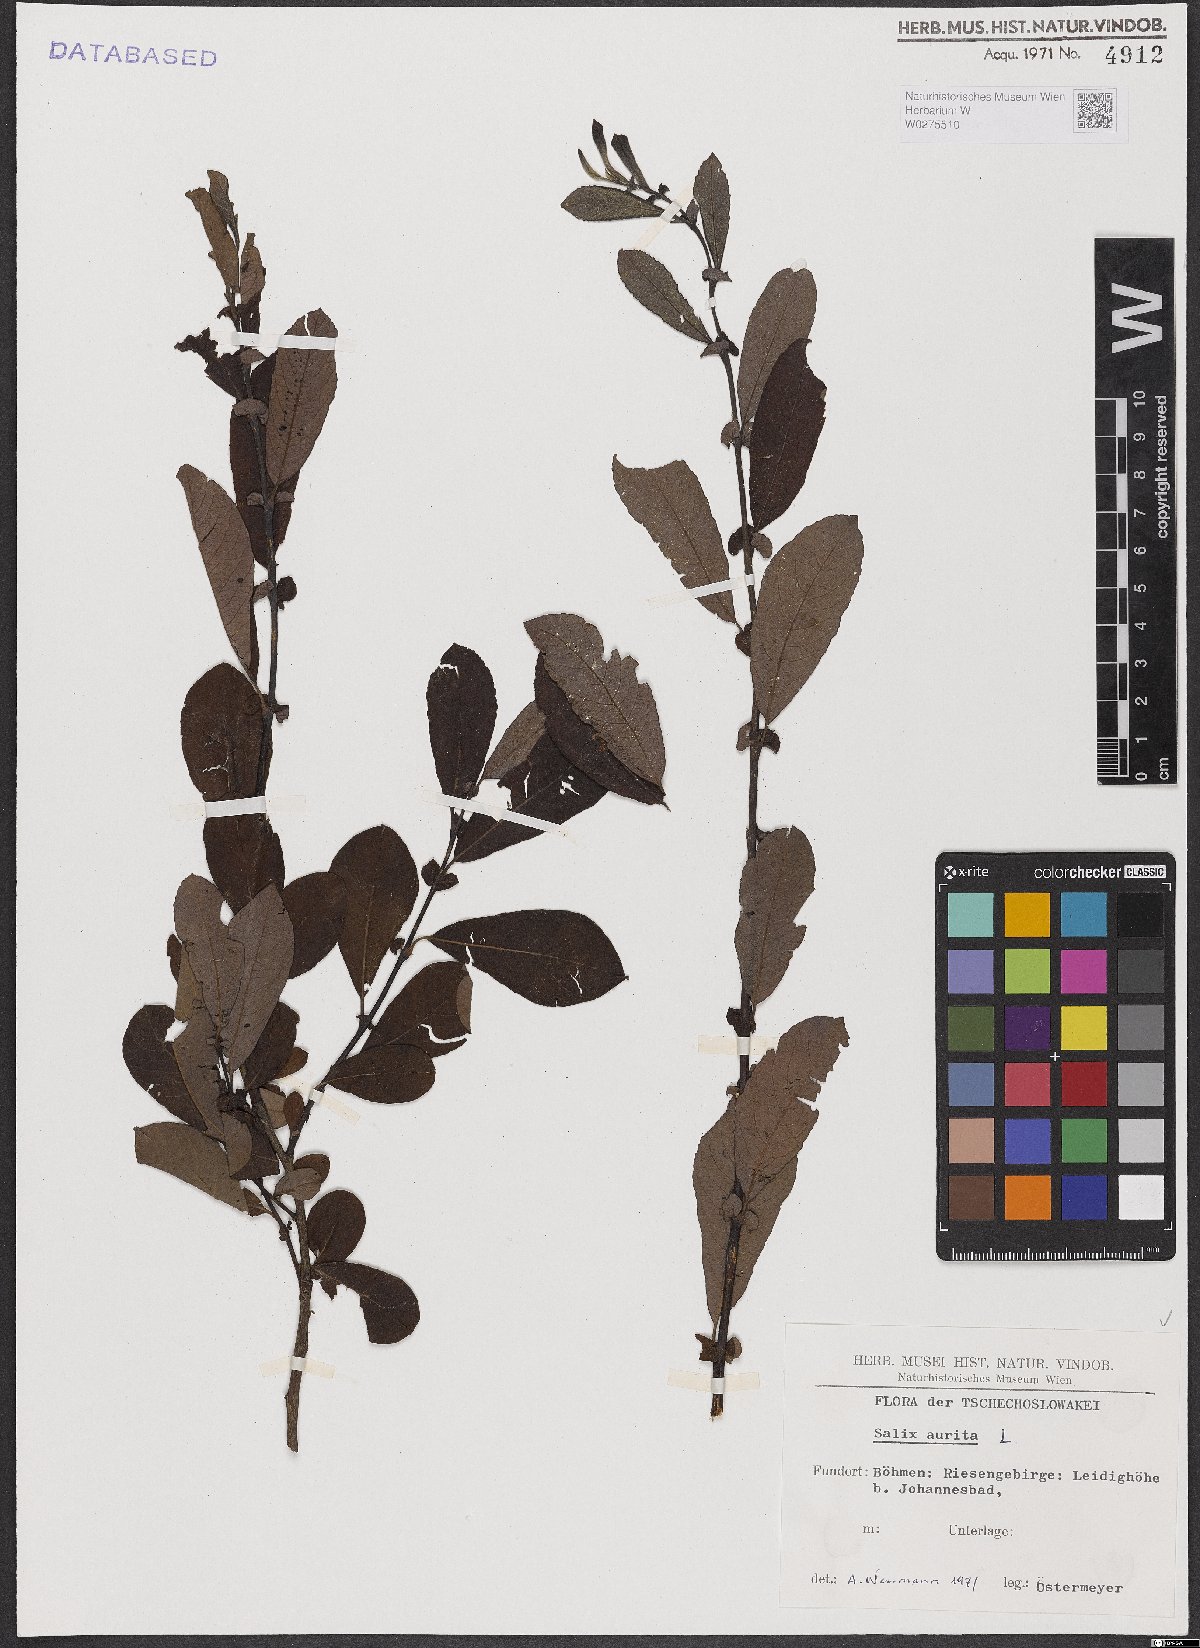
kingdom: Plantae
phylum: Tracheophyta
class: Magnoliopsida
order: Malpighiales
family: Salicaceae
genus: Salix
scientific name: Salix aurita
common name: Eared willow
